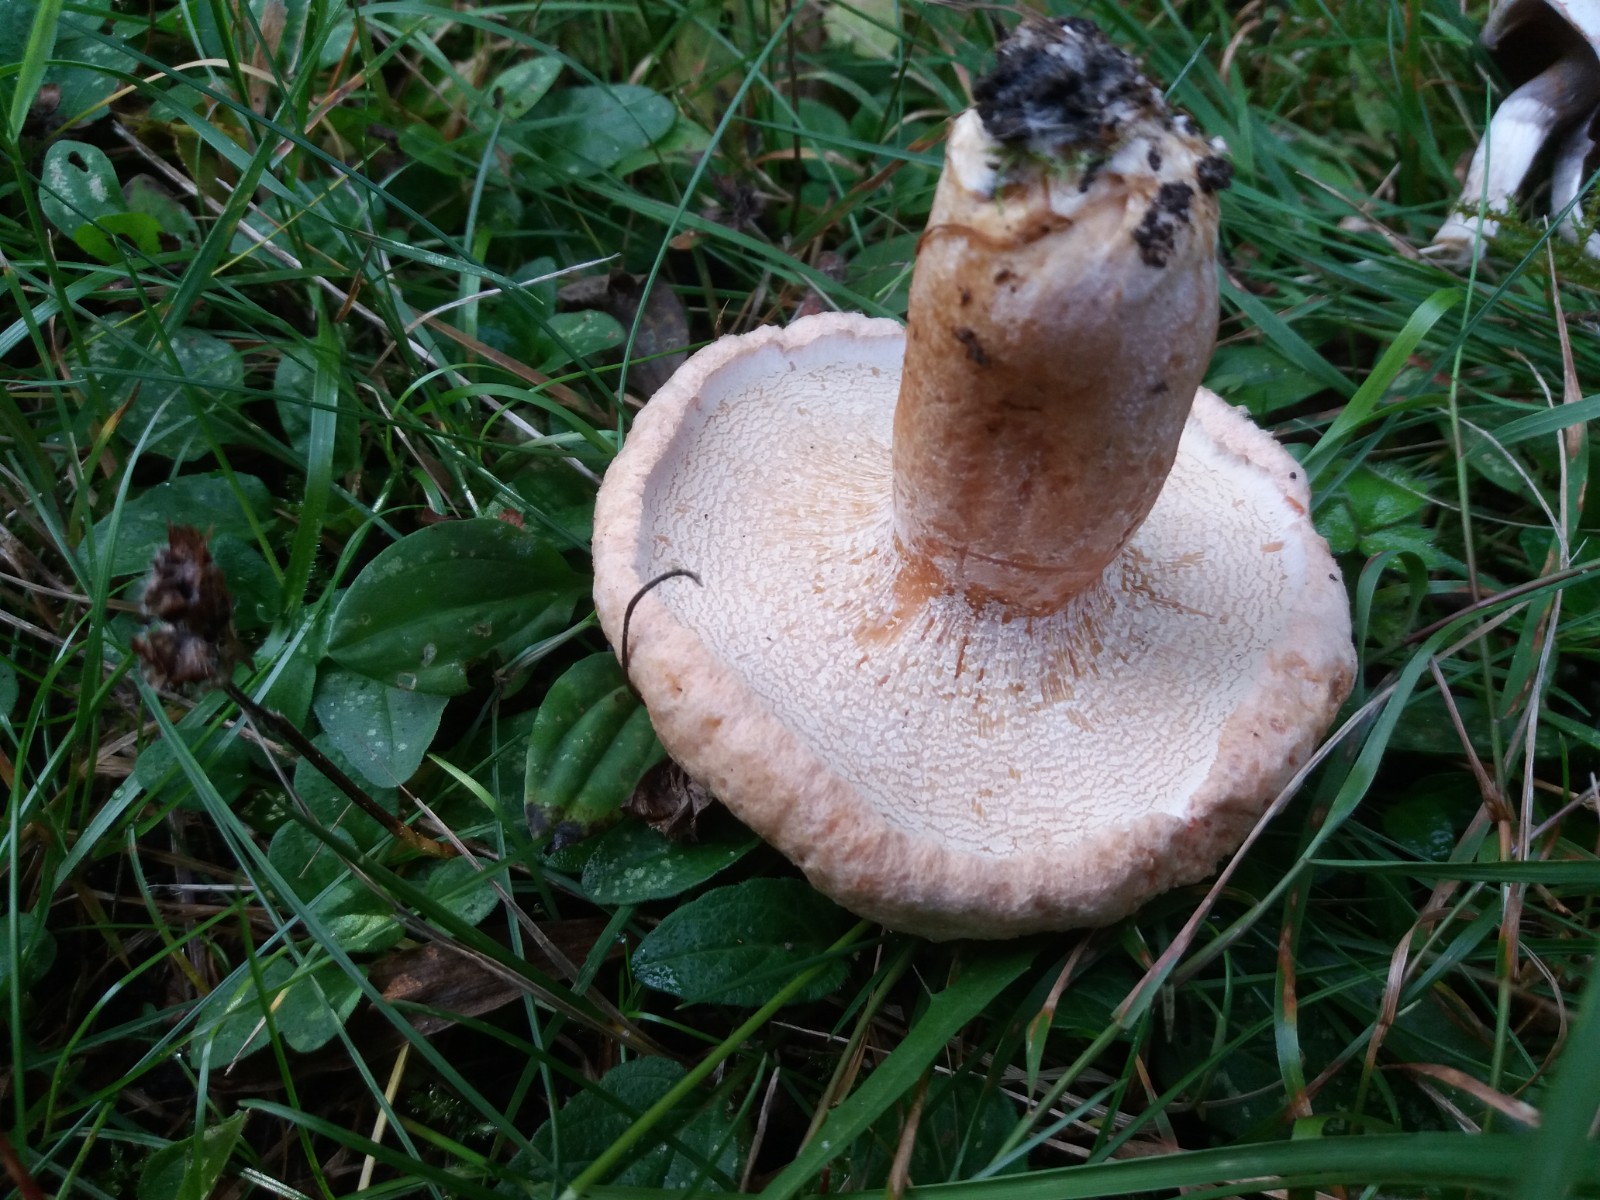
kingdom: Fungi
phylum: Ascomycota
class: Sordariomycetes
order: Hypocreales
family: Hypocreaceae
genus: Hypomyces
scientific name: Hypomyces spadiceus
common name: mælkeskæg-snylteskorpe
